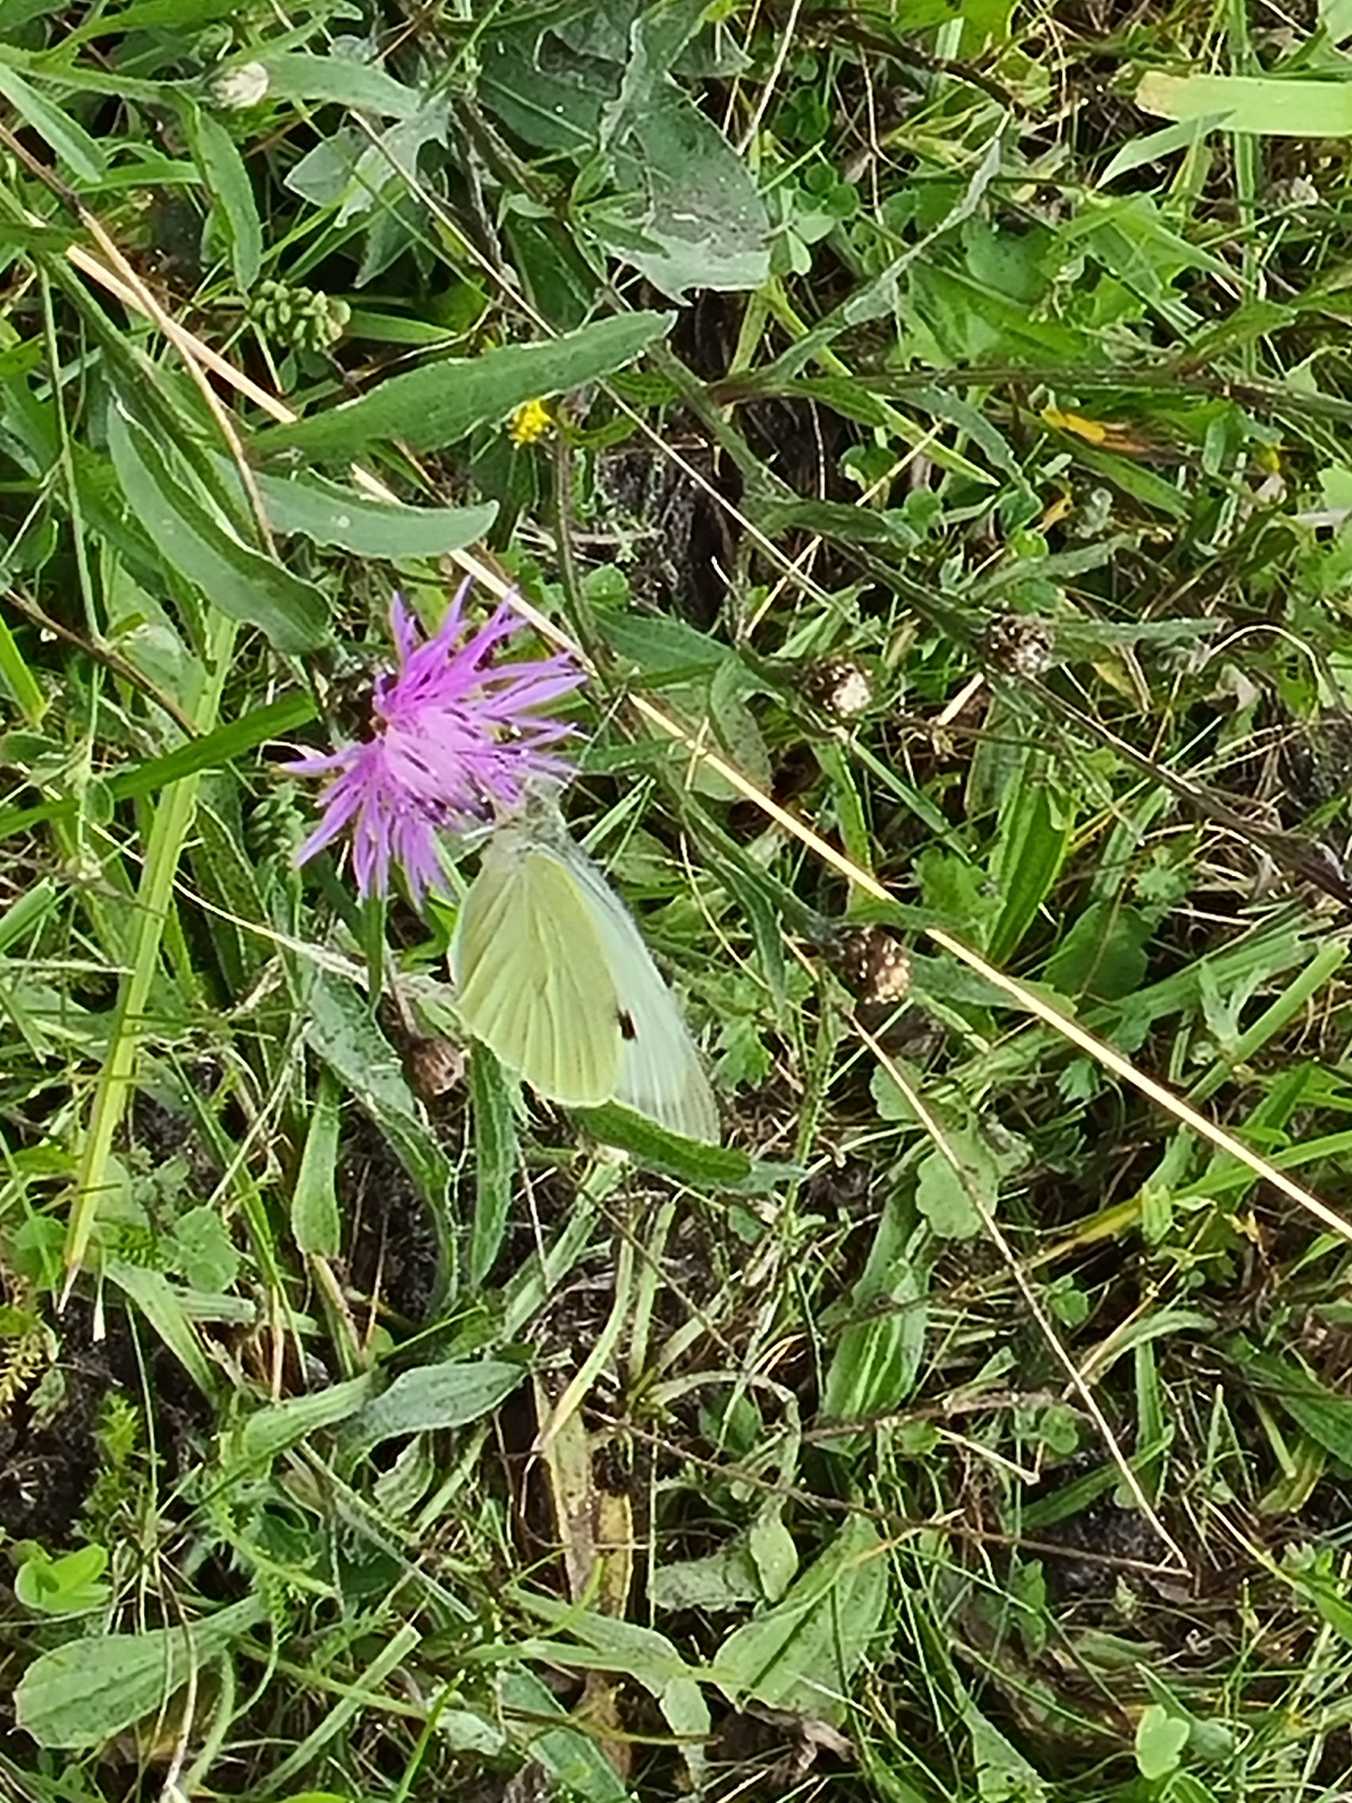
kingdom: Animalia
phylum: Arthropoda
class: Insecta
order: Lepidoptera
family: Pieridae
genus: Pieris
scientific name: Pieris brassicae
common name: Stor kålsommerfugl
